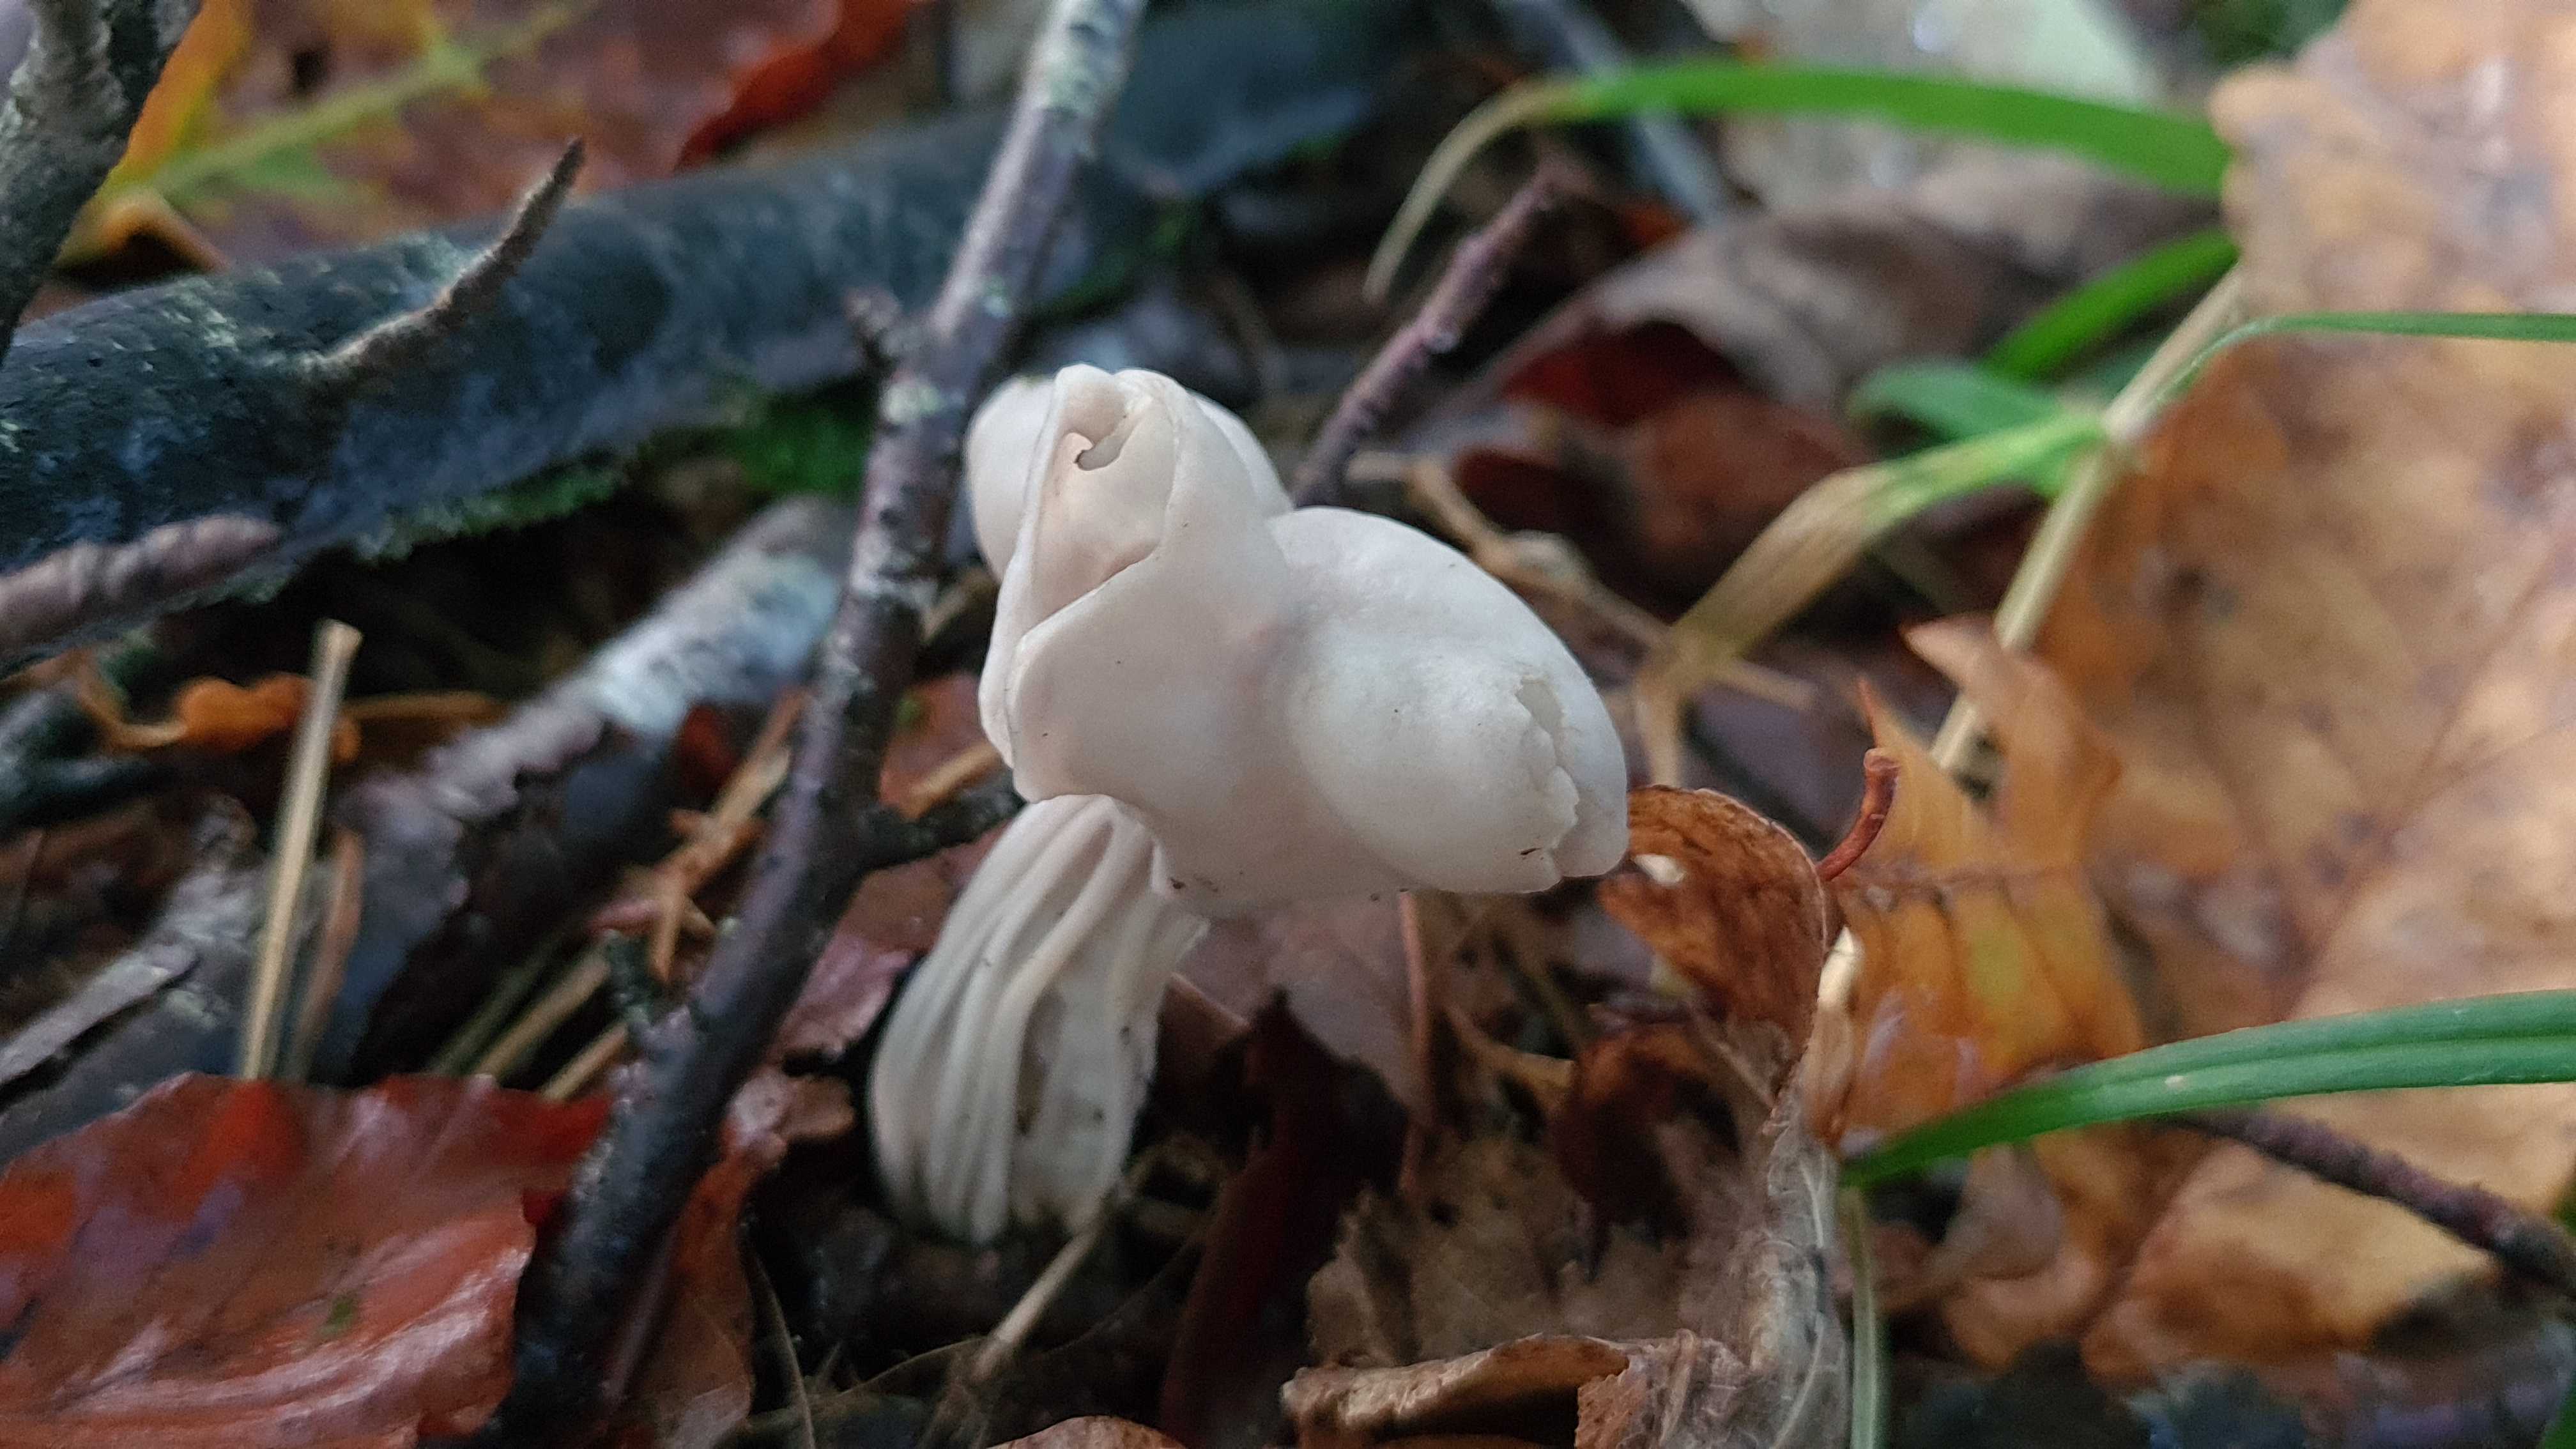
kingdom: Fungi
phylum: Ascomycota
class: Pezizomycetes
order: Pezizales
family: Helvellaceae
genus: Helvella
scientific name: Helvella crispa
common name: kruset foldhat
